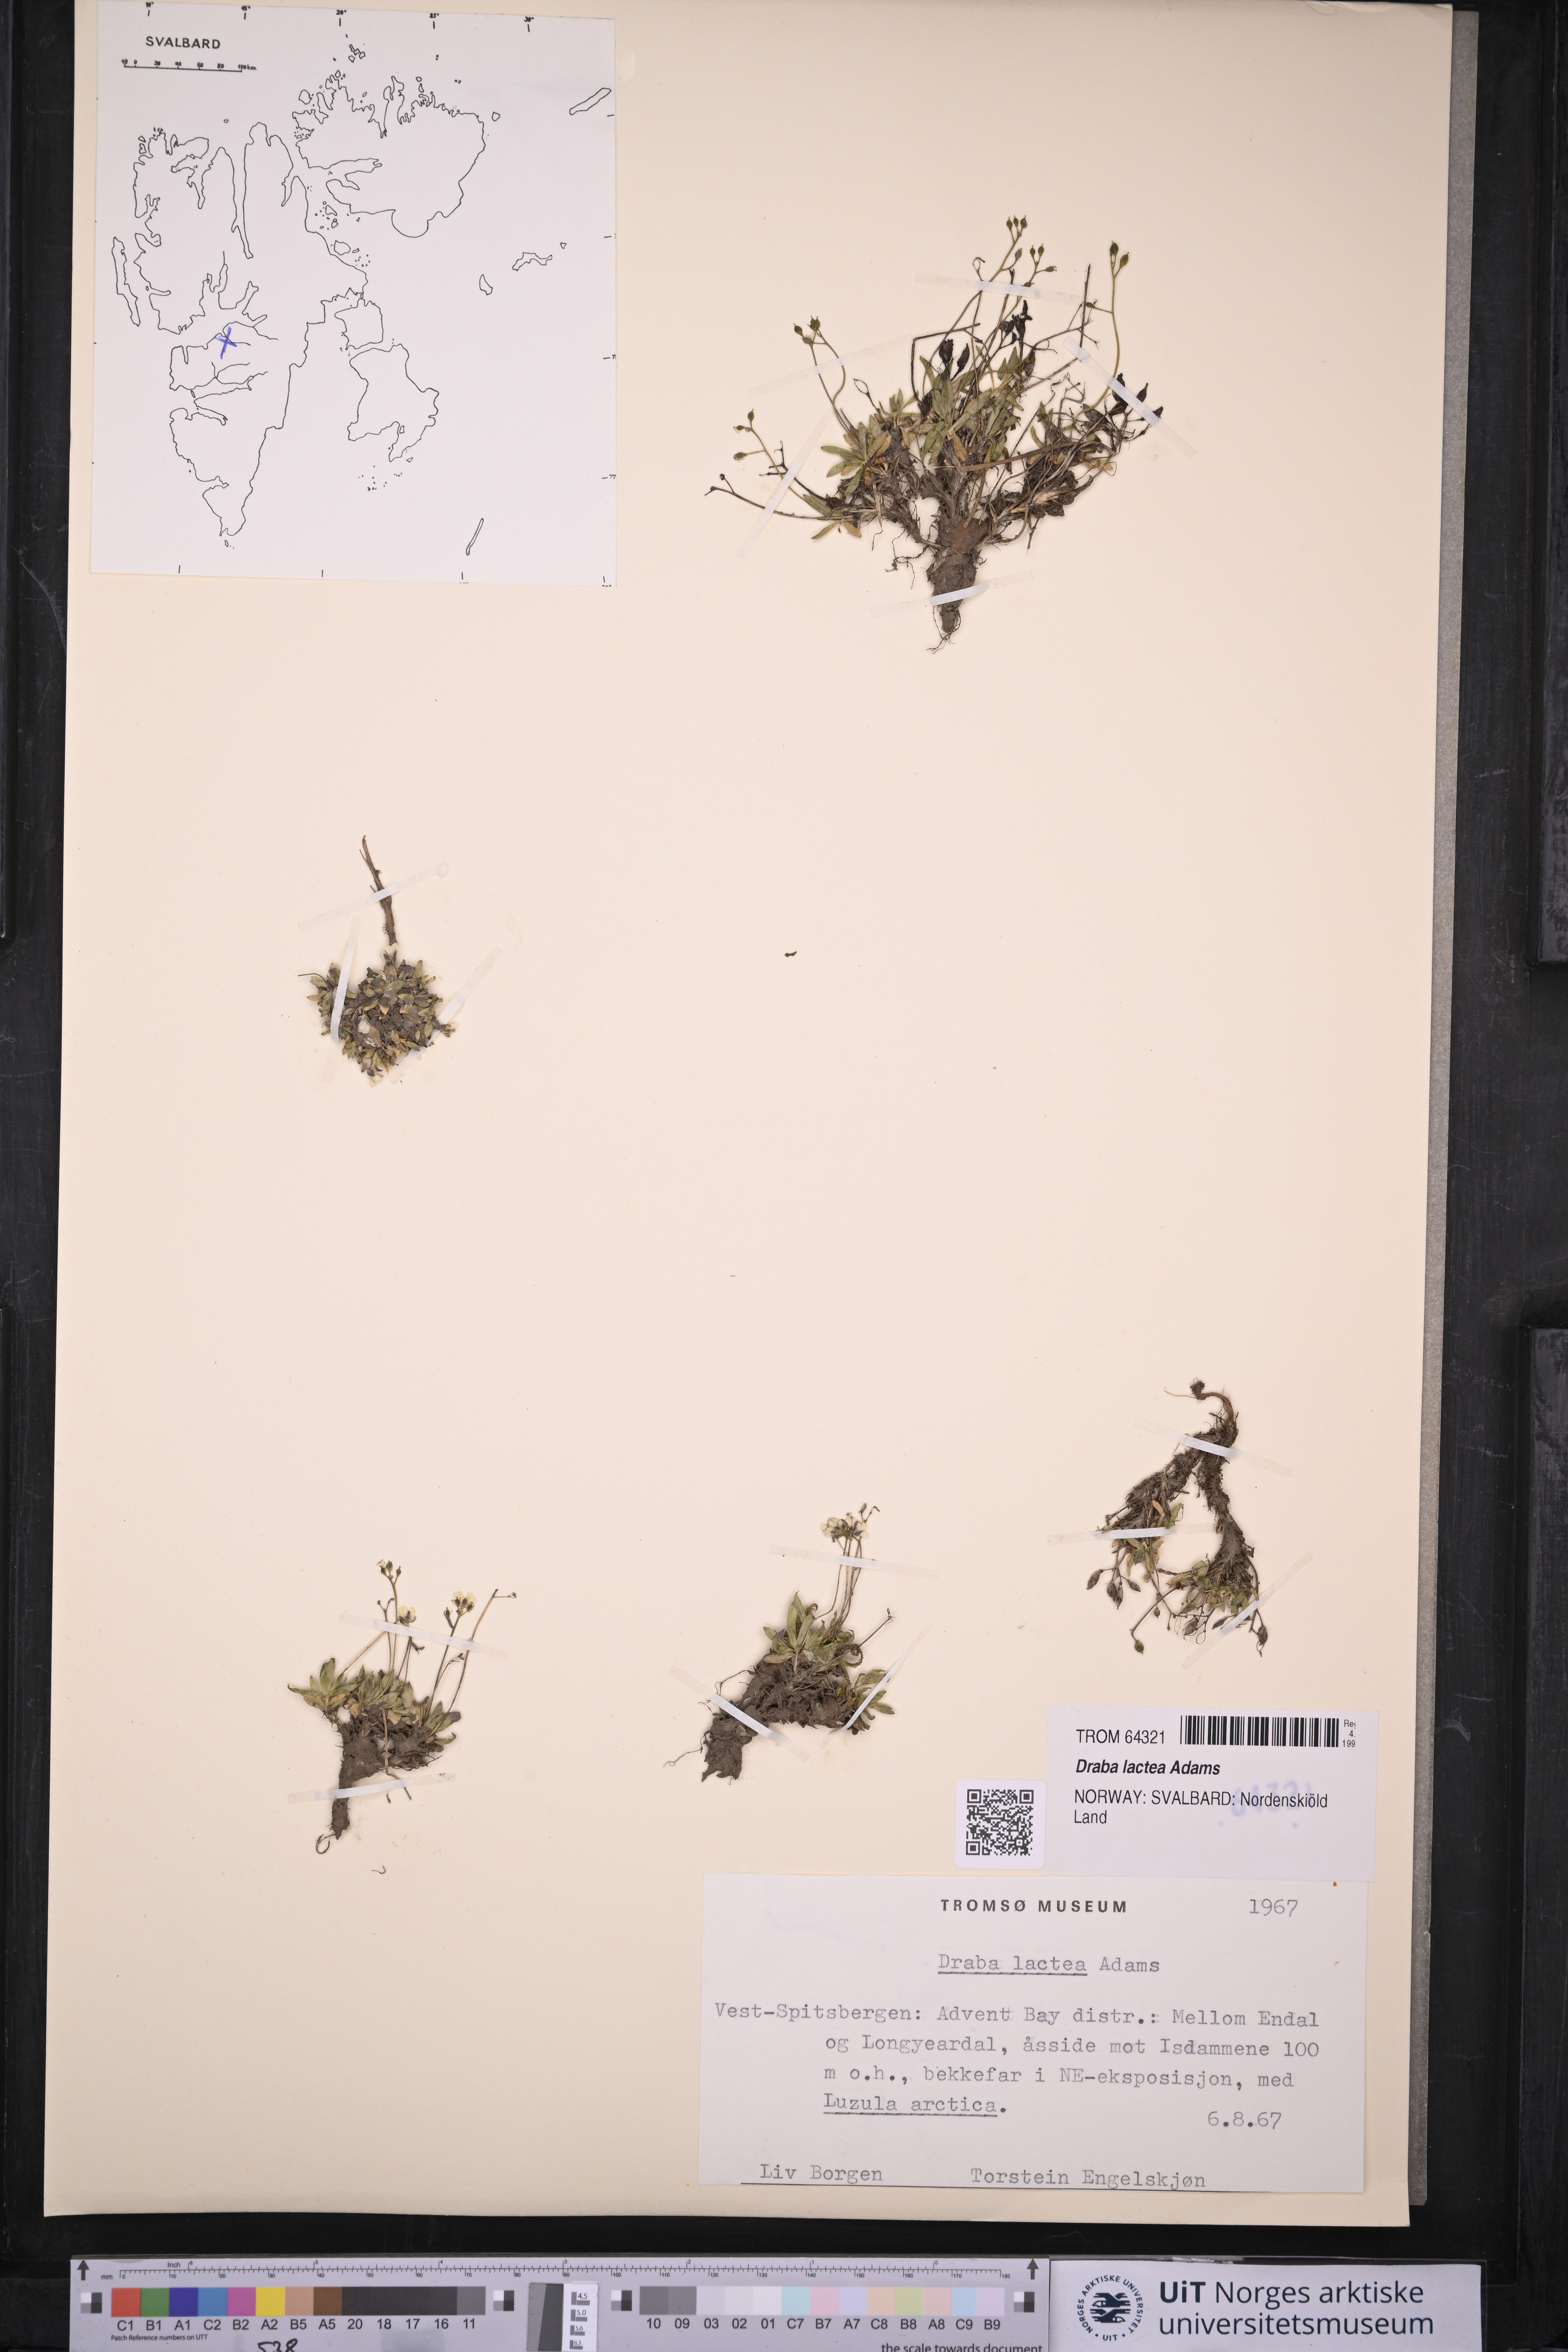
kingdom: Plantae
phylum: Tracheophyta
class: Magnoliopsida
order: Brassicales
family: Brassicaceae
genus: Draba
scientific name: Draba lactea
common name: Milky draba
